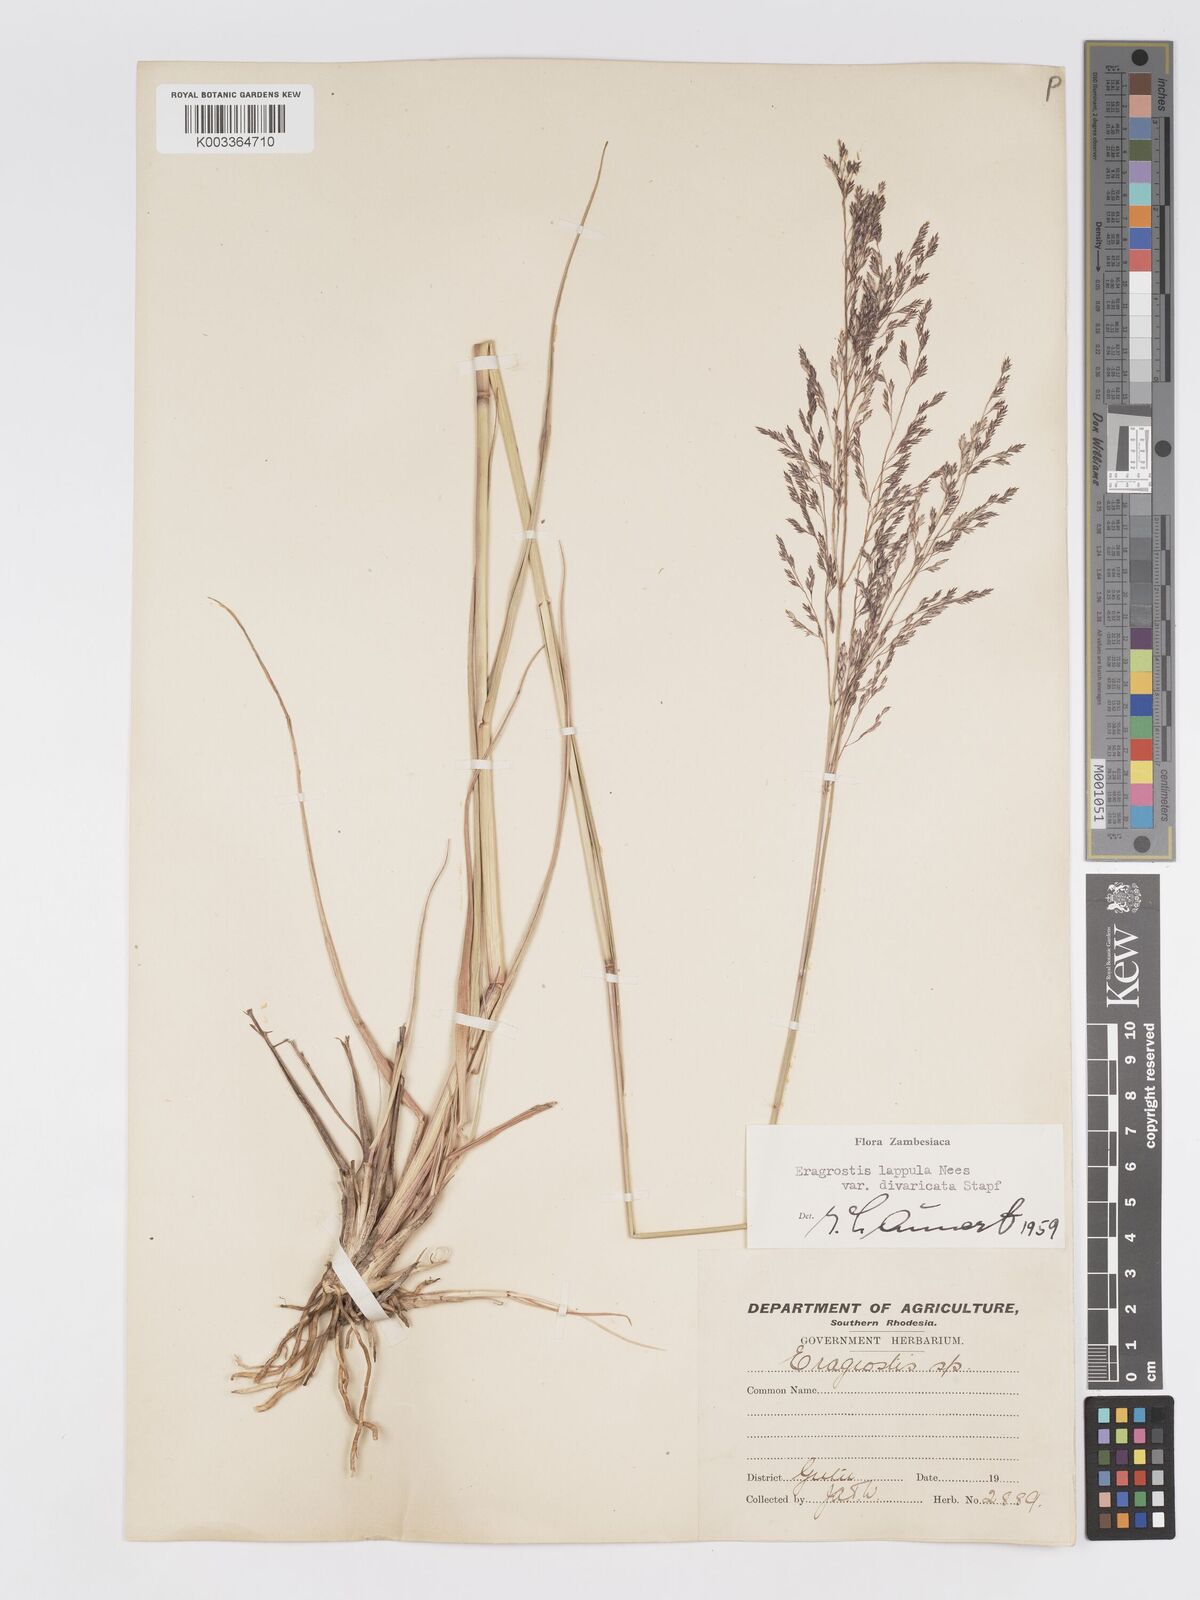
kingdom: Plantae
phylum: Tracheophyta
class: Liliopsida
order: Poales
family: Poaceae
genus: Eragrostis
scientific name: Eragrostis lappula
